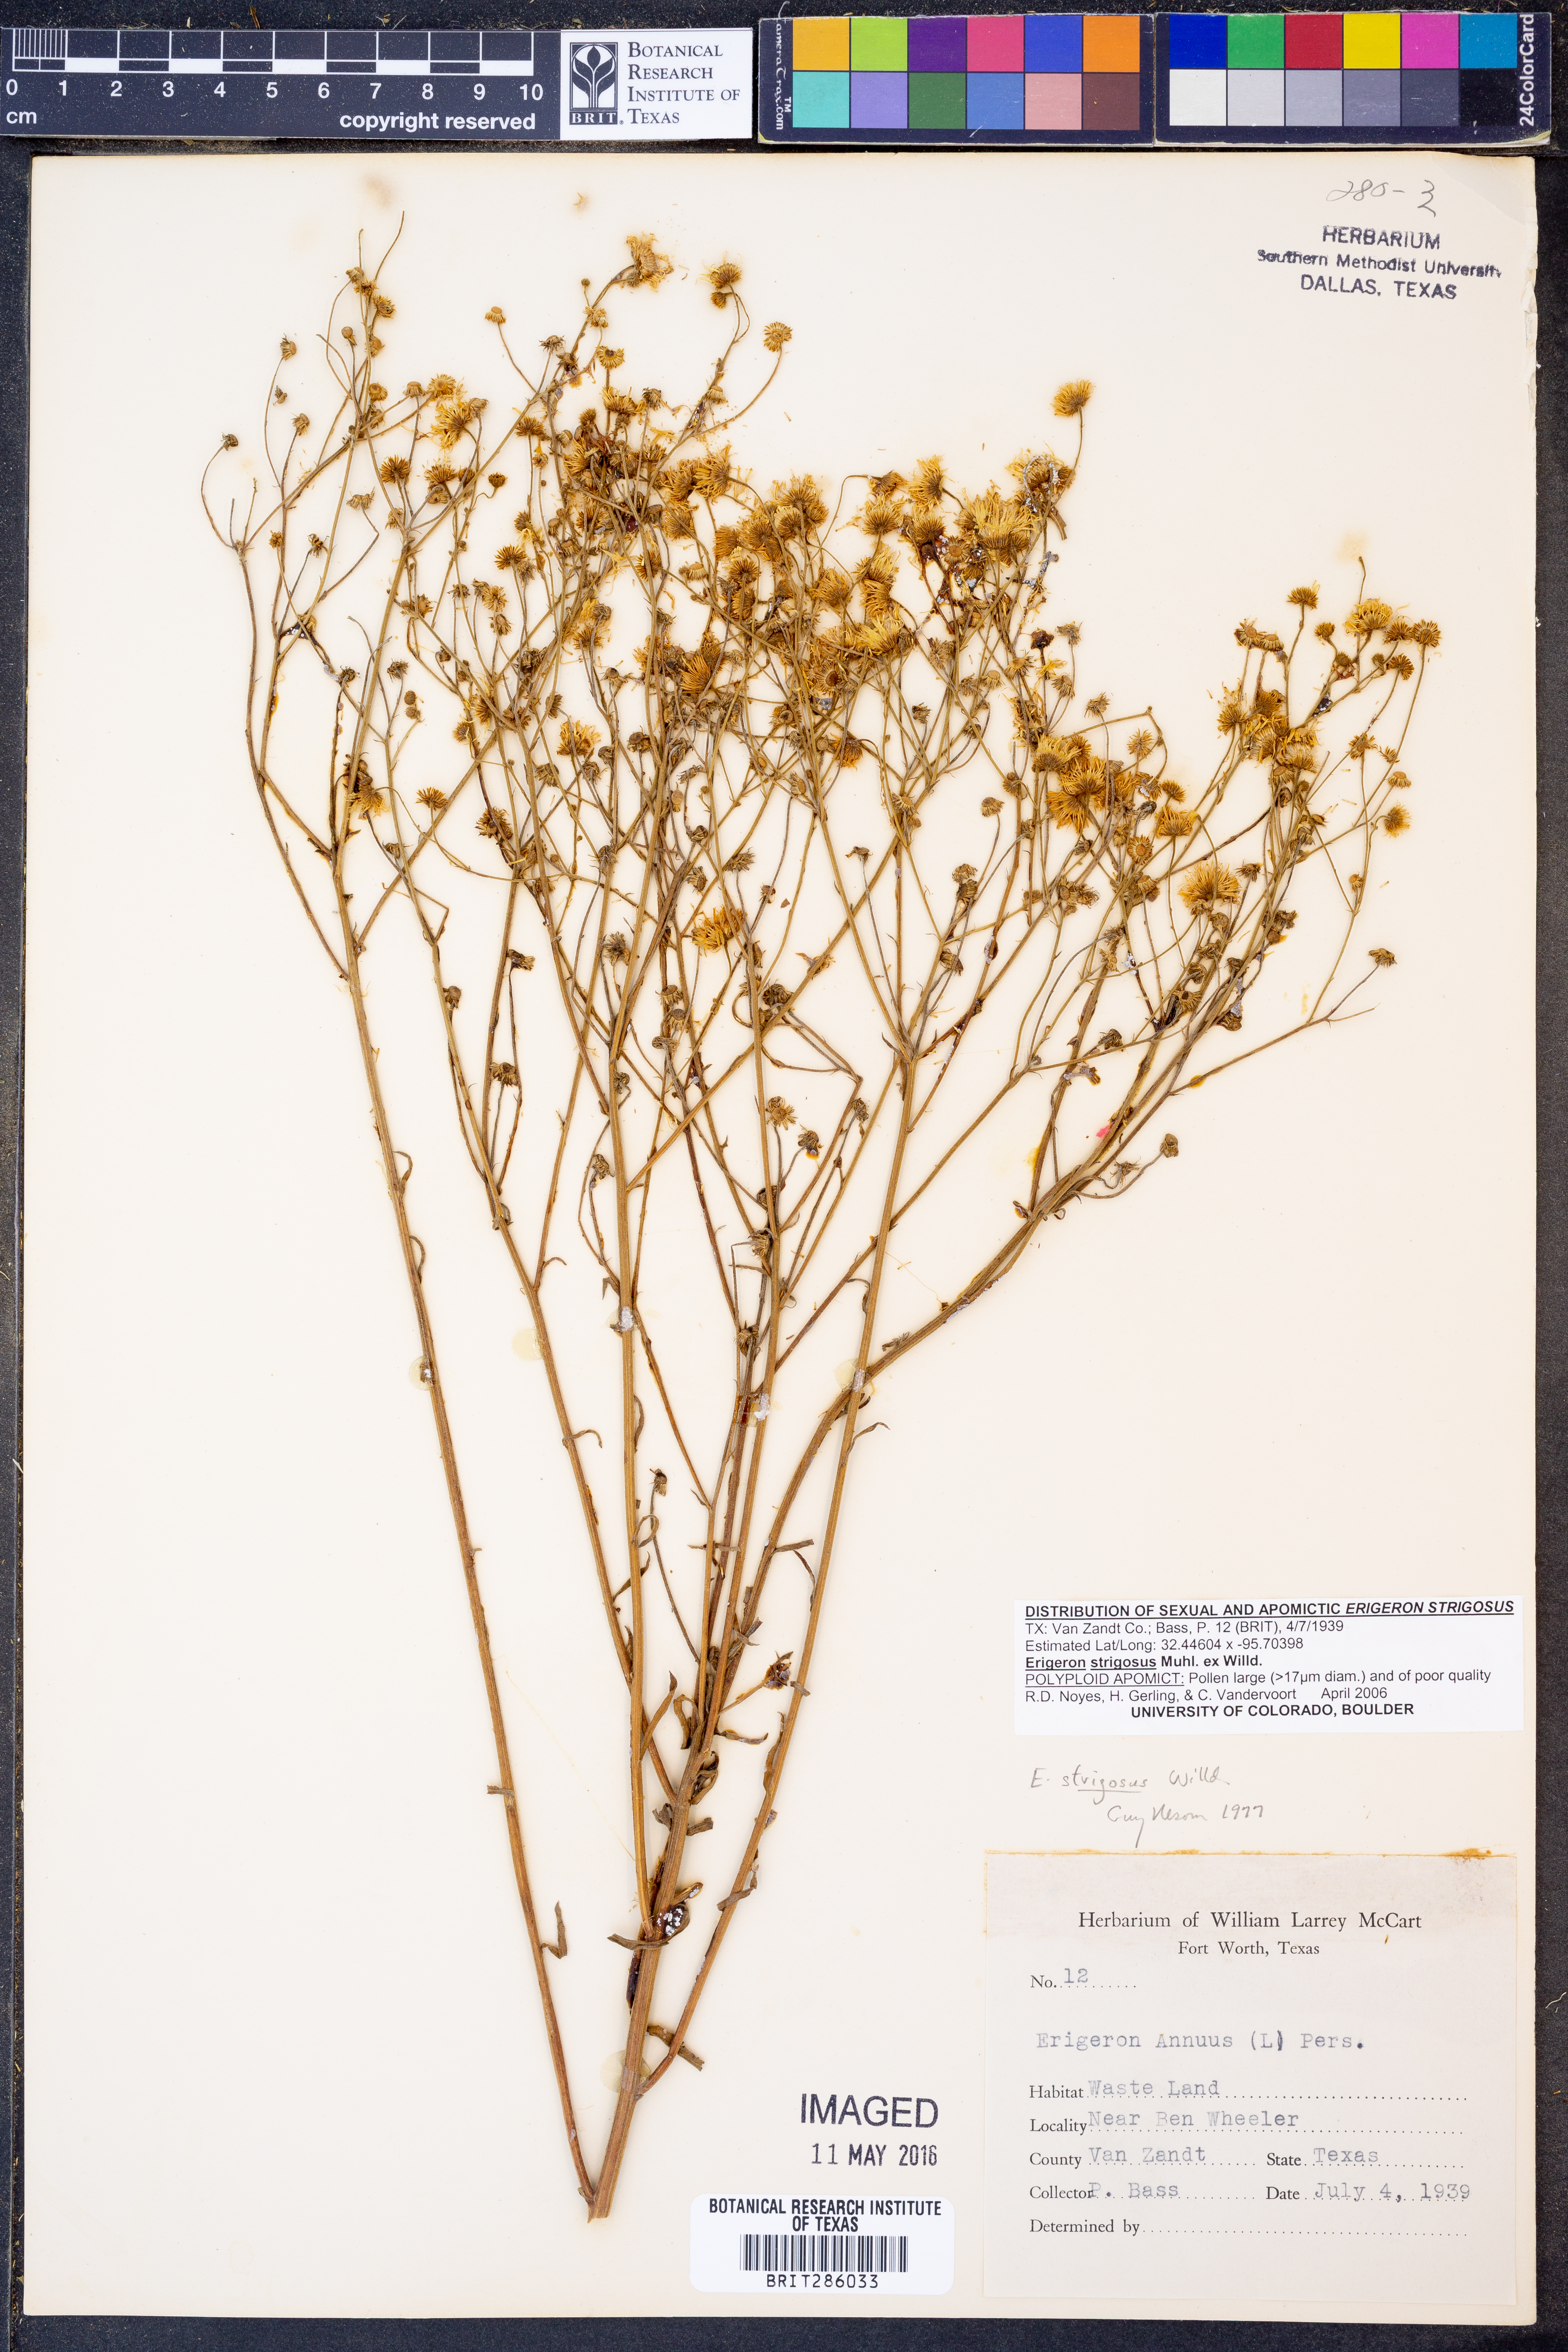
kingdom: Plantae
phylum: Tracheophyta
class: Magnoliopsida
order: Asterales
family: Asteraceae
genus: Erigeron
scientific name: Erigeron strigosus
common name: Common eastern fleabane
